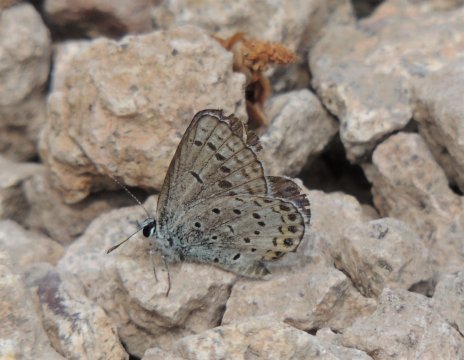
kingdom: Animalia
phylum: Arthropoda
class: Insecta
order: Lepidoptera
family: Lycaenidae
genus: Lycaeides
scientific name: Lycaeides melissa
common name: Melissa Blue
